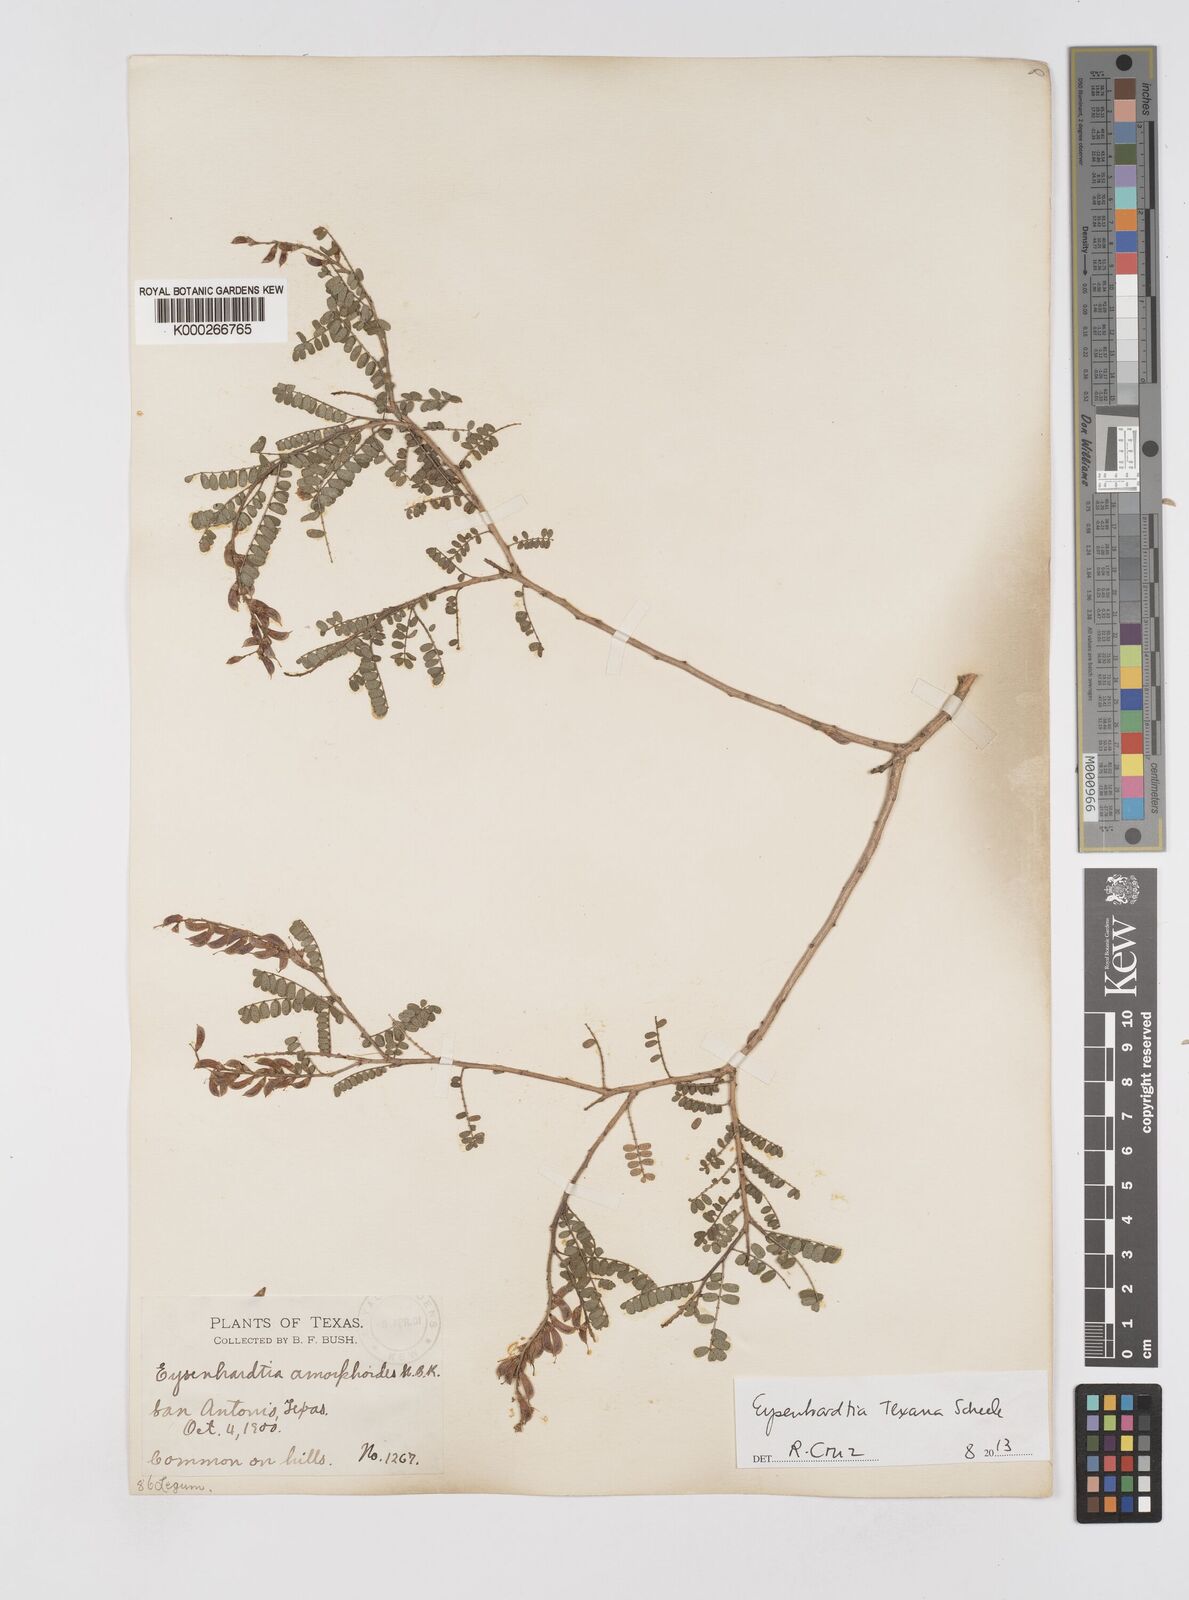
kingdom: Plantae
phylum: Tracheophyta
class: Magnoliopsida
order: Fabales
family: Fabaceae
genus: Eysenhardtia
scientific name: Eysenhardtia texana
